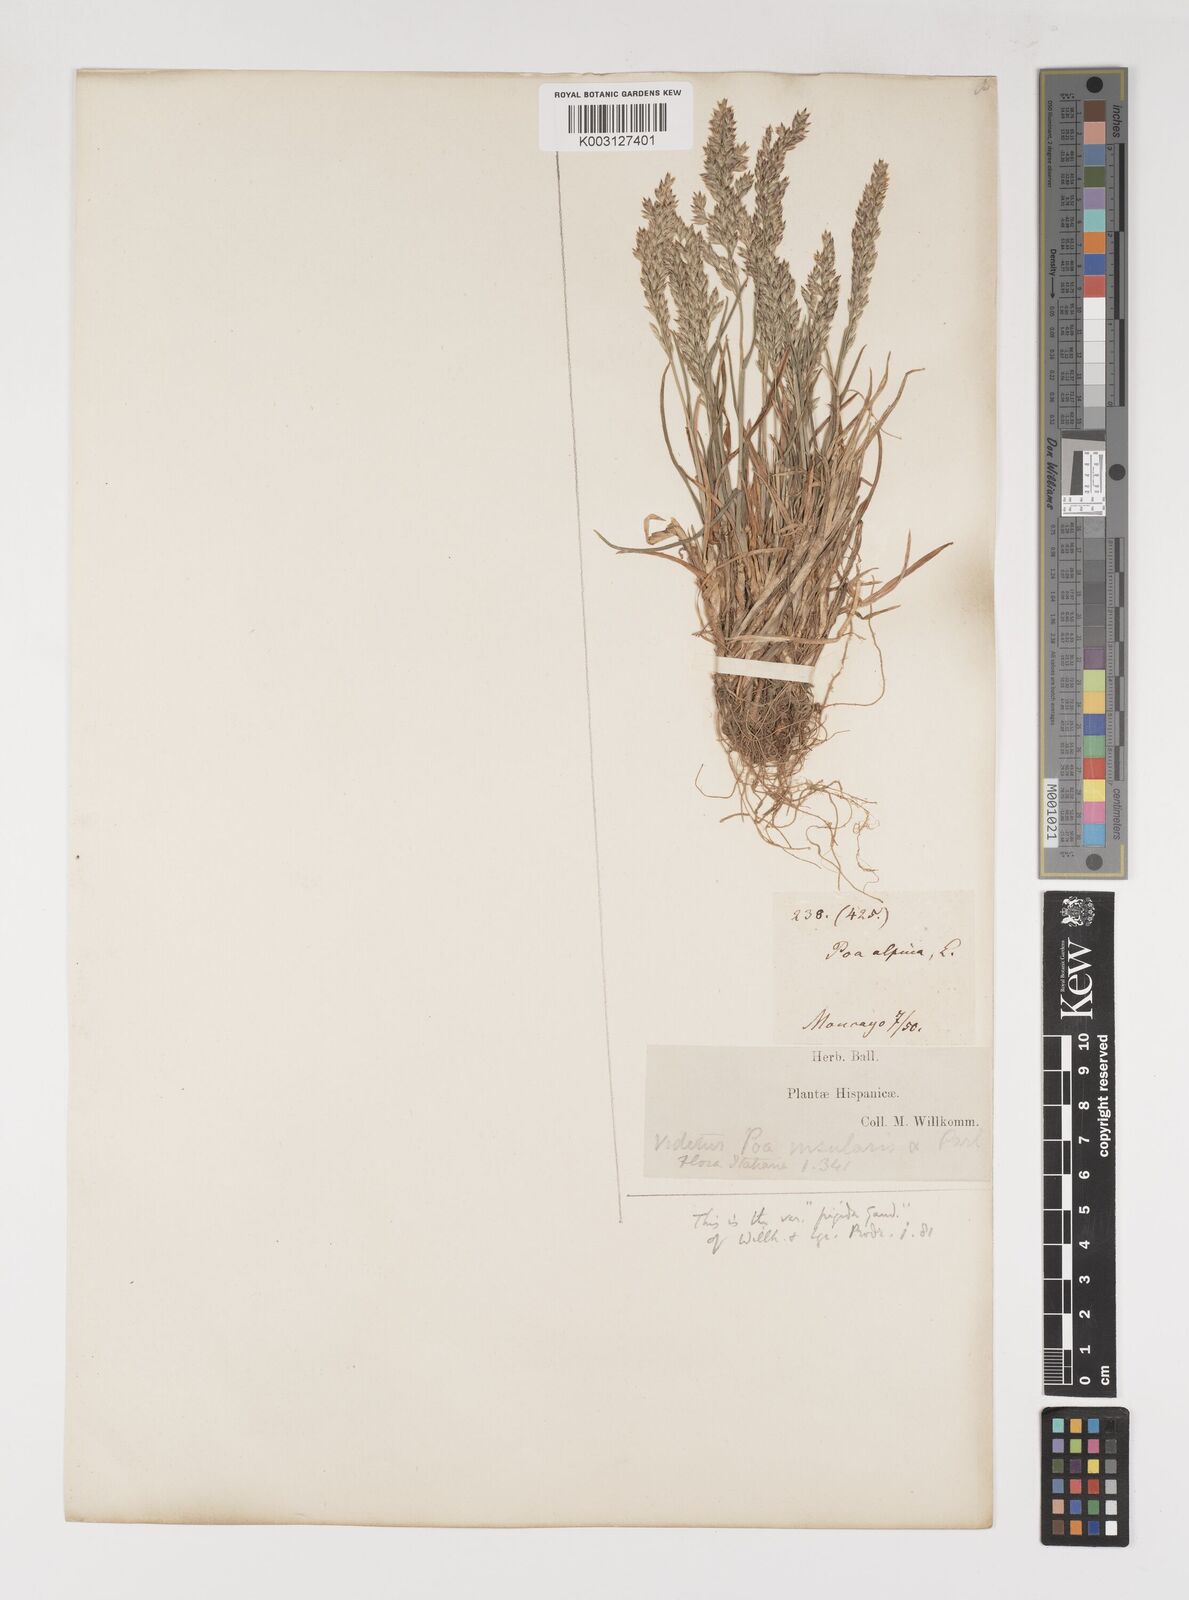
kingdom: Plantae
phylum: Tracheophyta
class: Liliopsida
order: Poales
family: Poaceae
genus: Poa
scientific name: Poa alpina
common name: Alpine bluegrass
